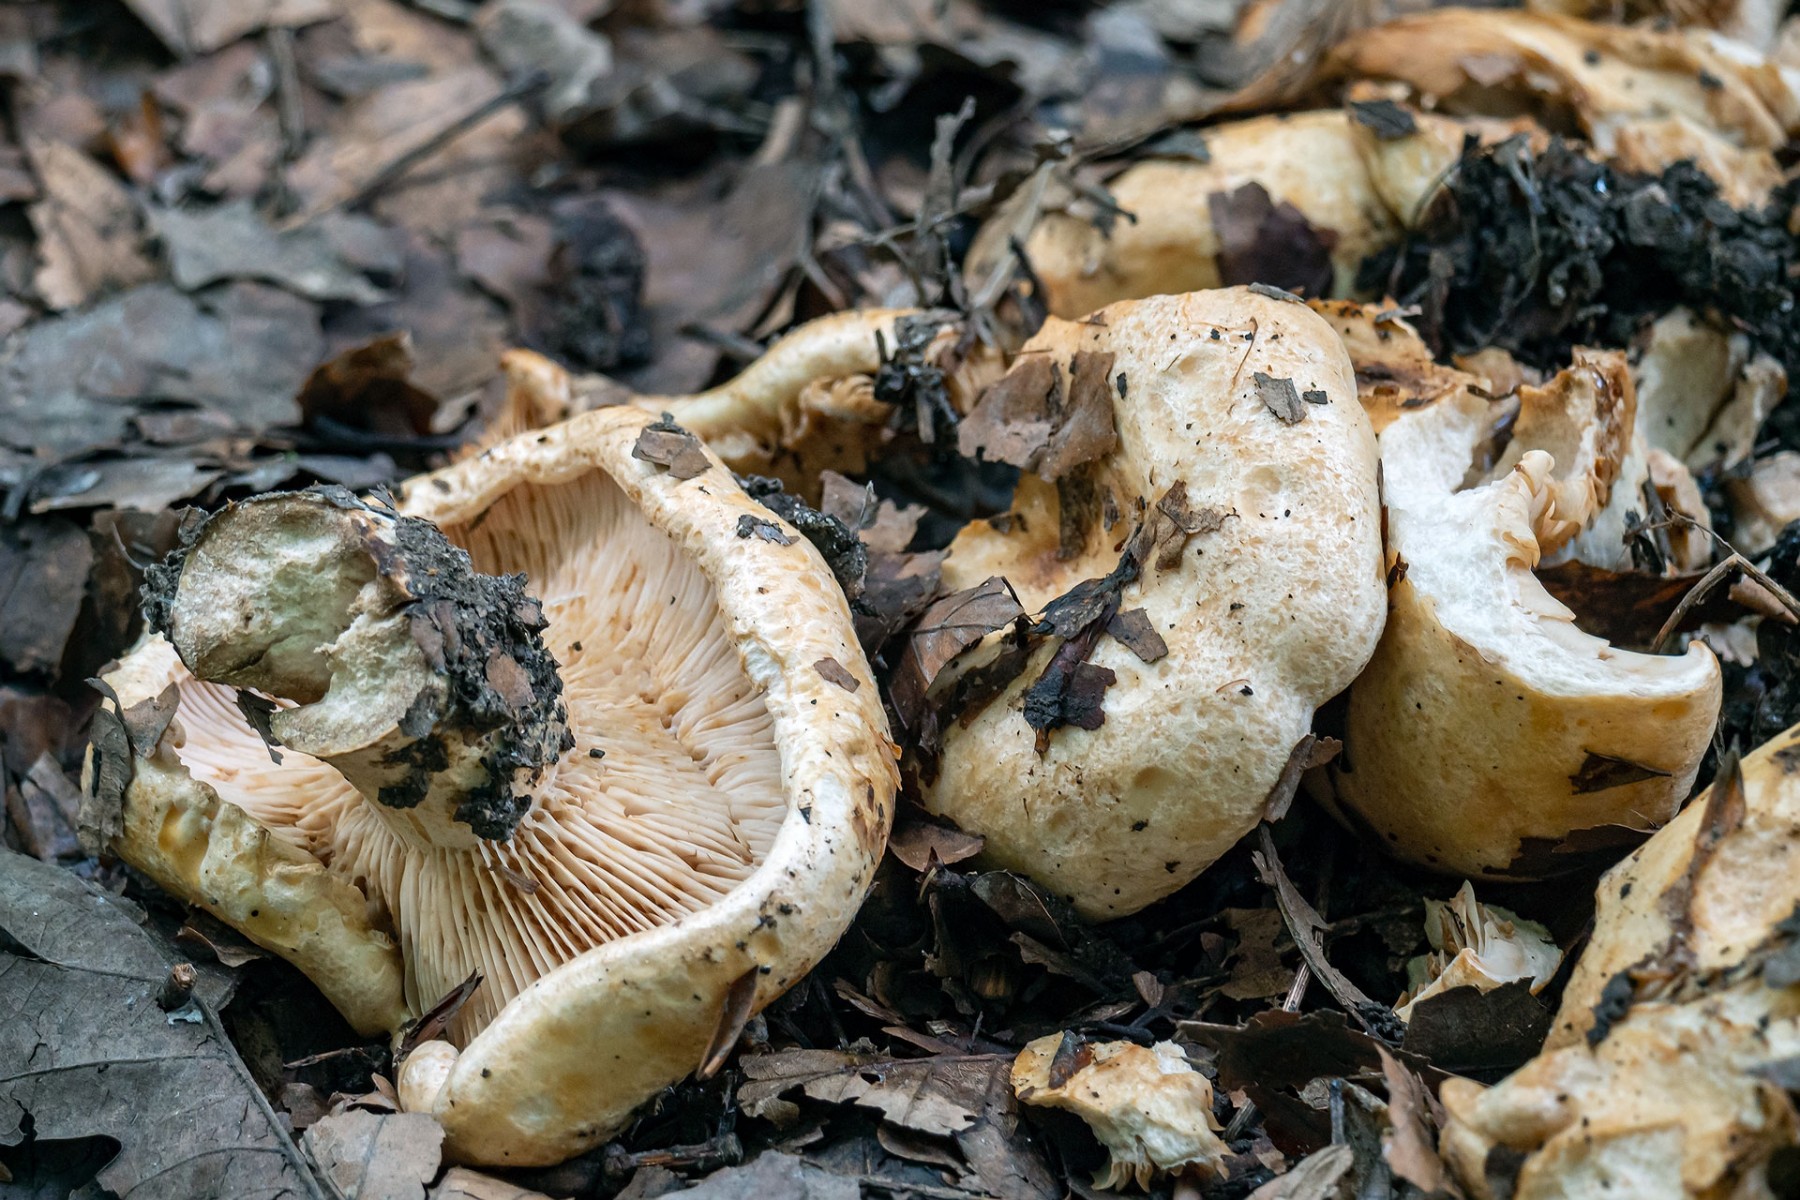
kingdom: Fungi
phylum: Basidiomycota
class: Agaricomycetes
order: Russulales
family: Russulaceae
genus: Lactarius
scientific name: Lactarius acerrimus
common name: brændende mælkehat
